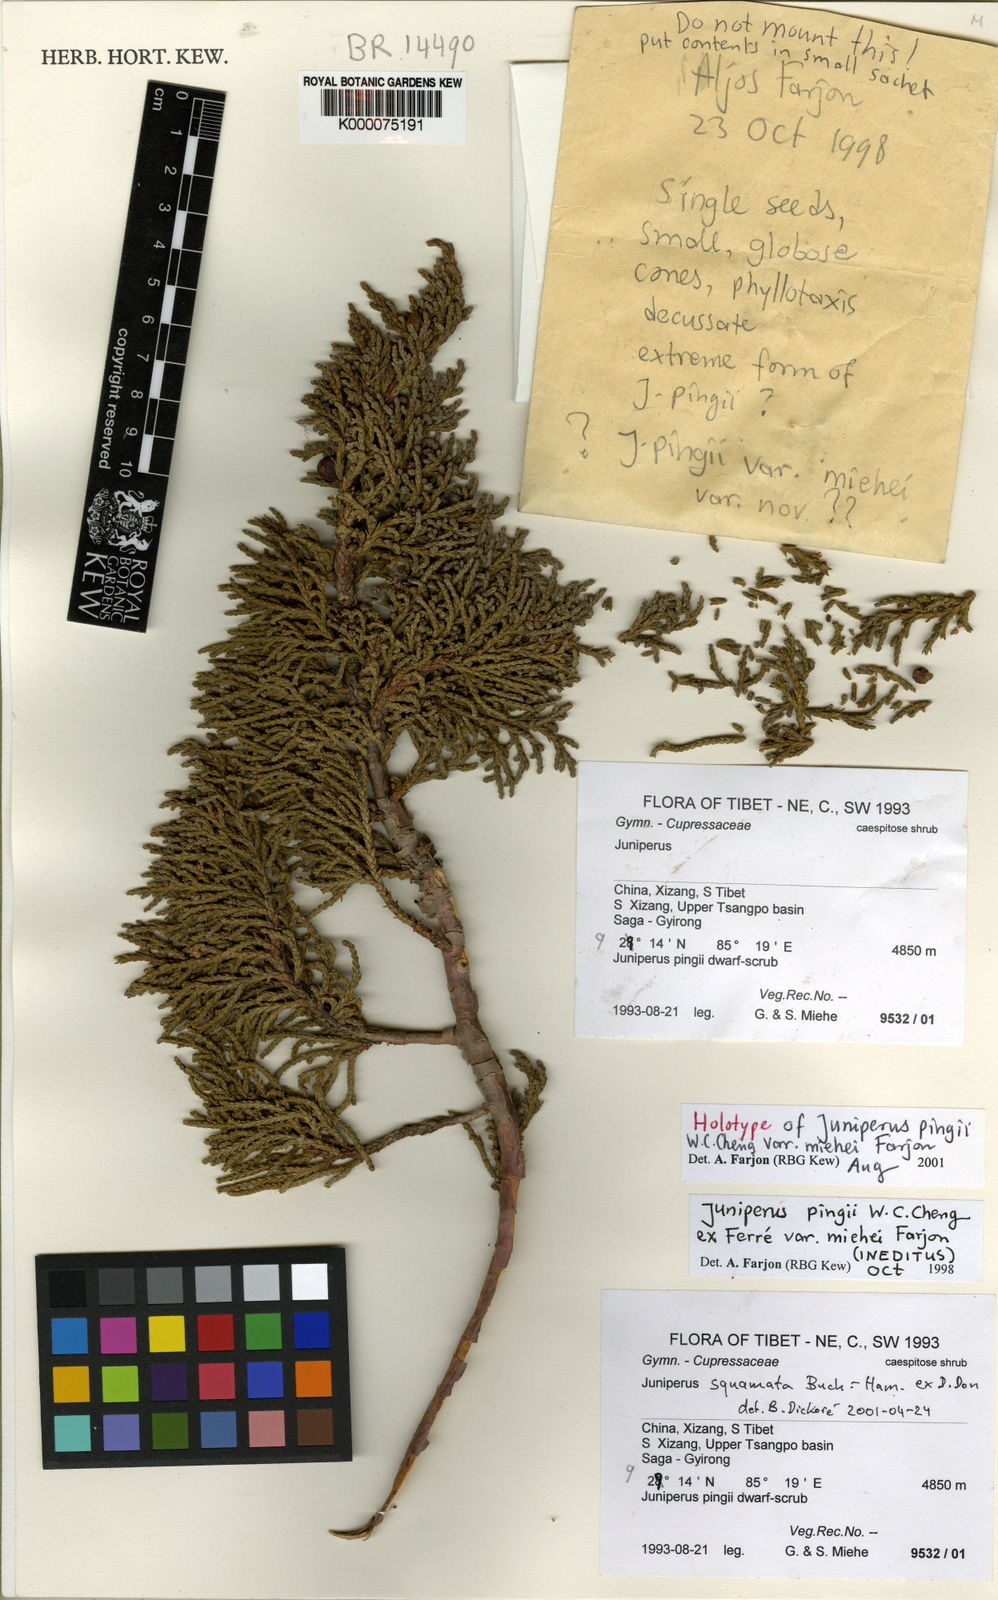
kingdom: Plantae
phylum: Tracheophyta
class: Pinopsida
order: Pinales
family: Cupressaceae
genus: Juniperus
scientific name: Juniperus
